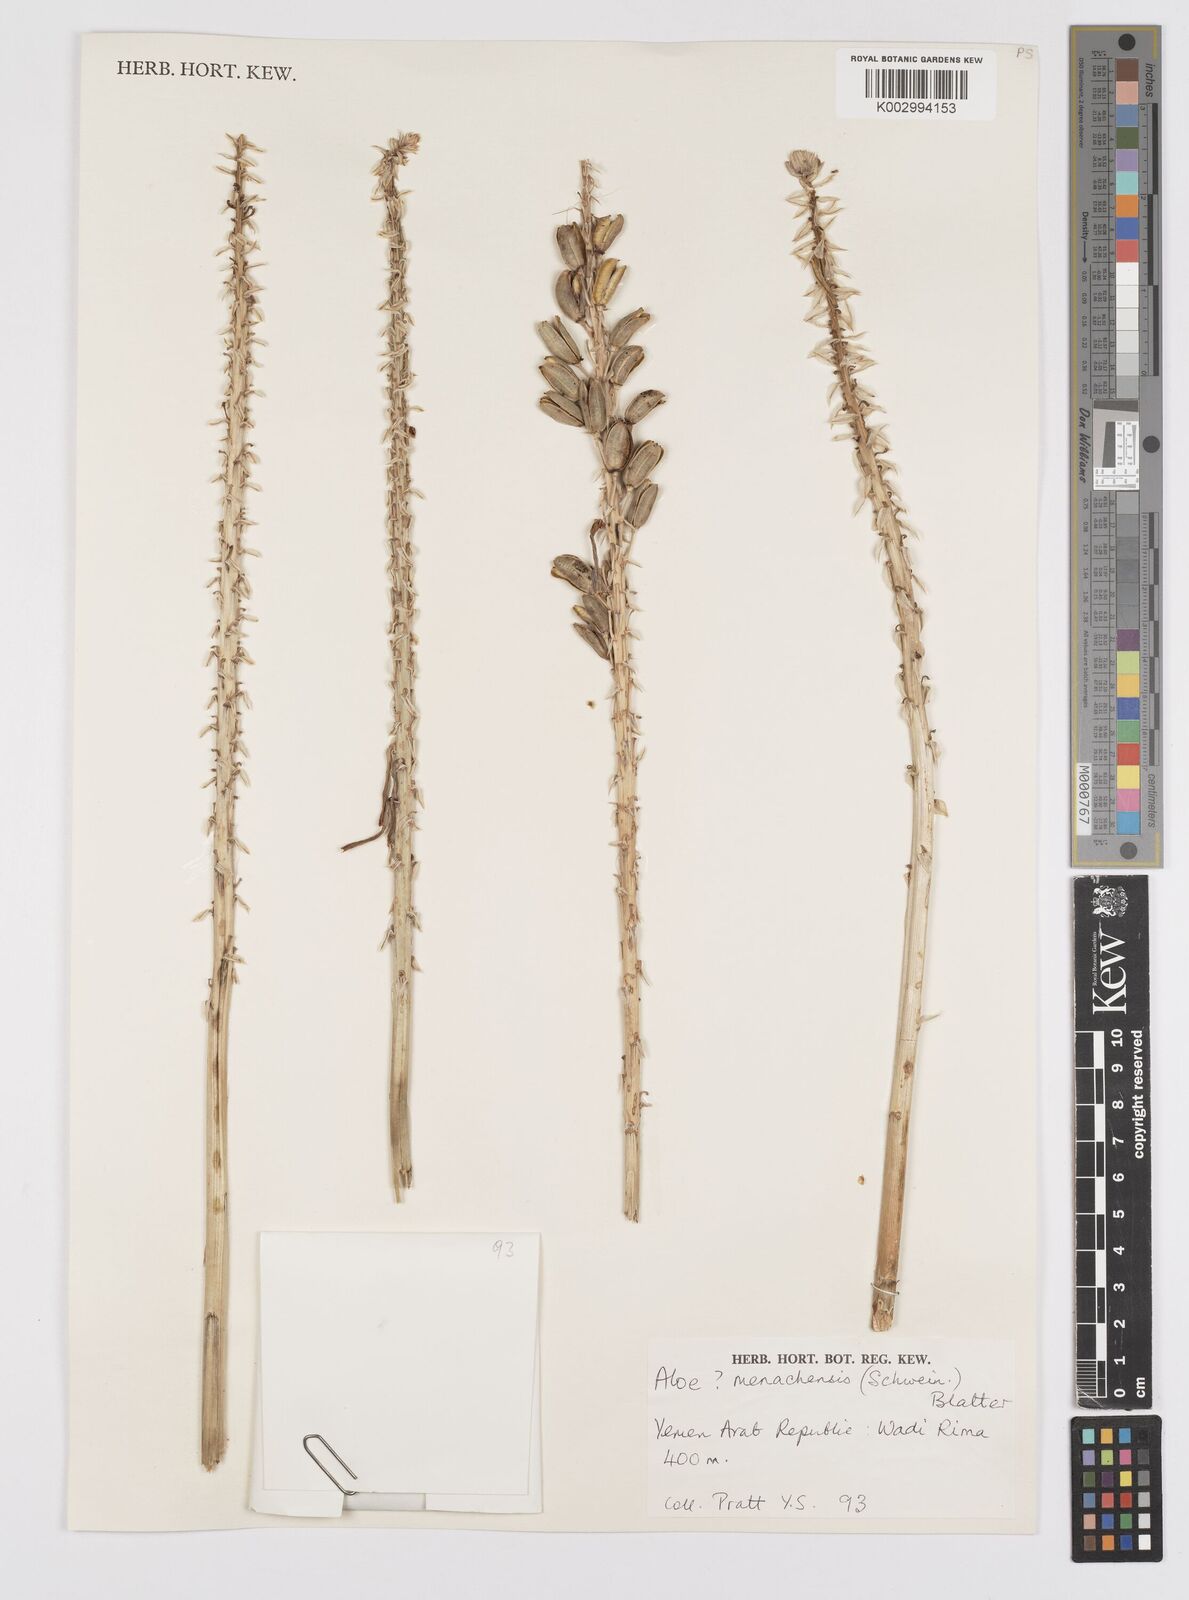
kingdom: Plantae
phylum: Tracheophyta
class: Liliopsida
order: Asparagales
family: Asphodelaceae
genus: Aloe
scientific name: Aloe menachensis
